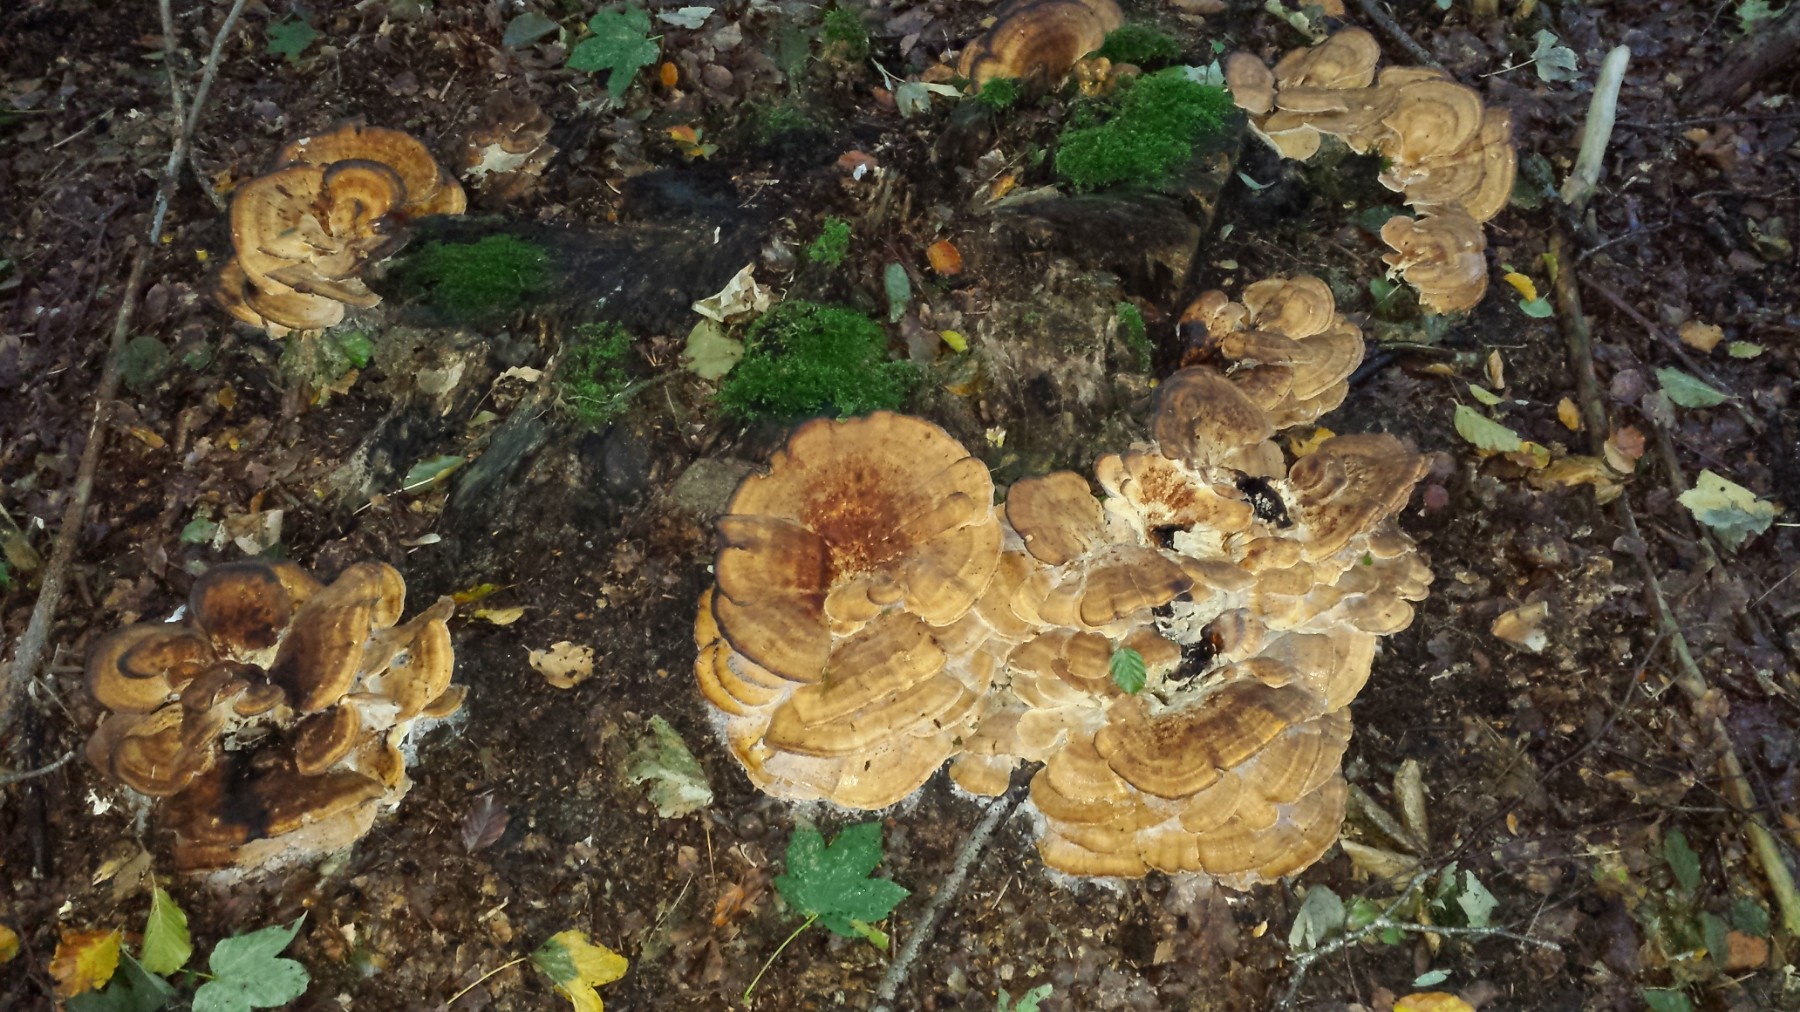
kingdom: Fungi
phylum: Basidiomycota
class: Agaricomycetes
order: Polyporales
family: Meripilaceae
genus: Meripilus
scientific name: Meripilus giganteus
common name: kæmpeporesvamp
